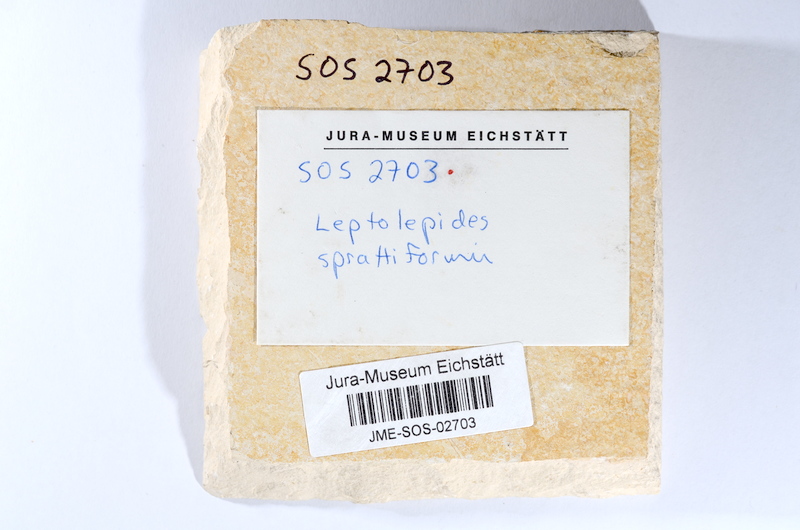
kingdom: Animalia
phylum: Chordata
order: Salmoniformes
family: Orthogonikleithridae
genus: Leptolepides
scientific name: Leptolepides sprattiformis
